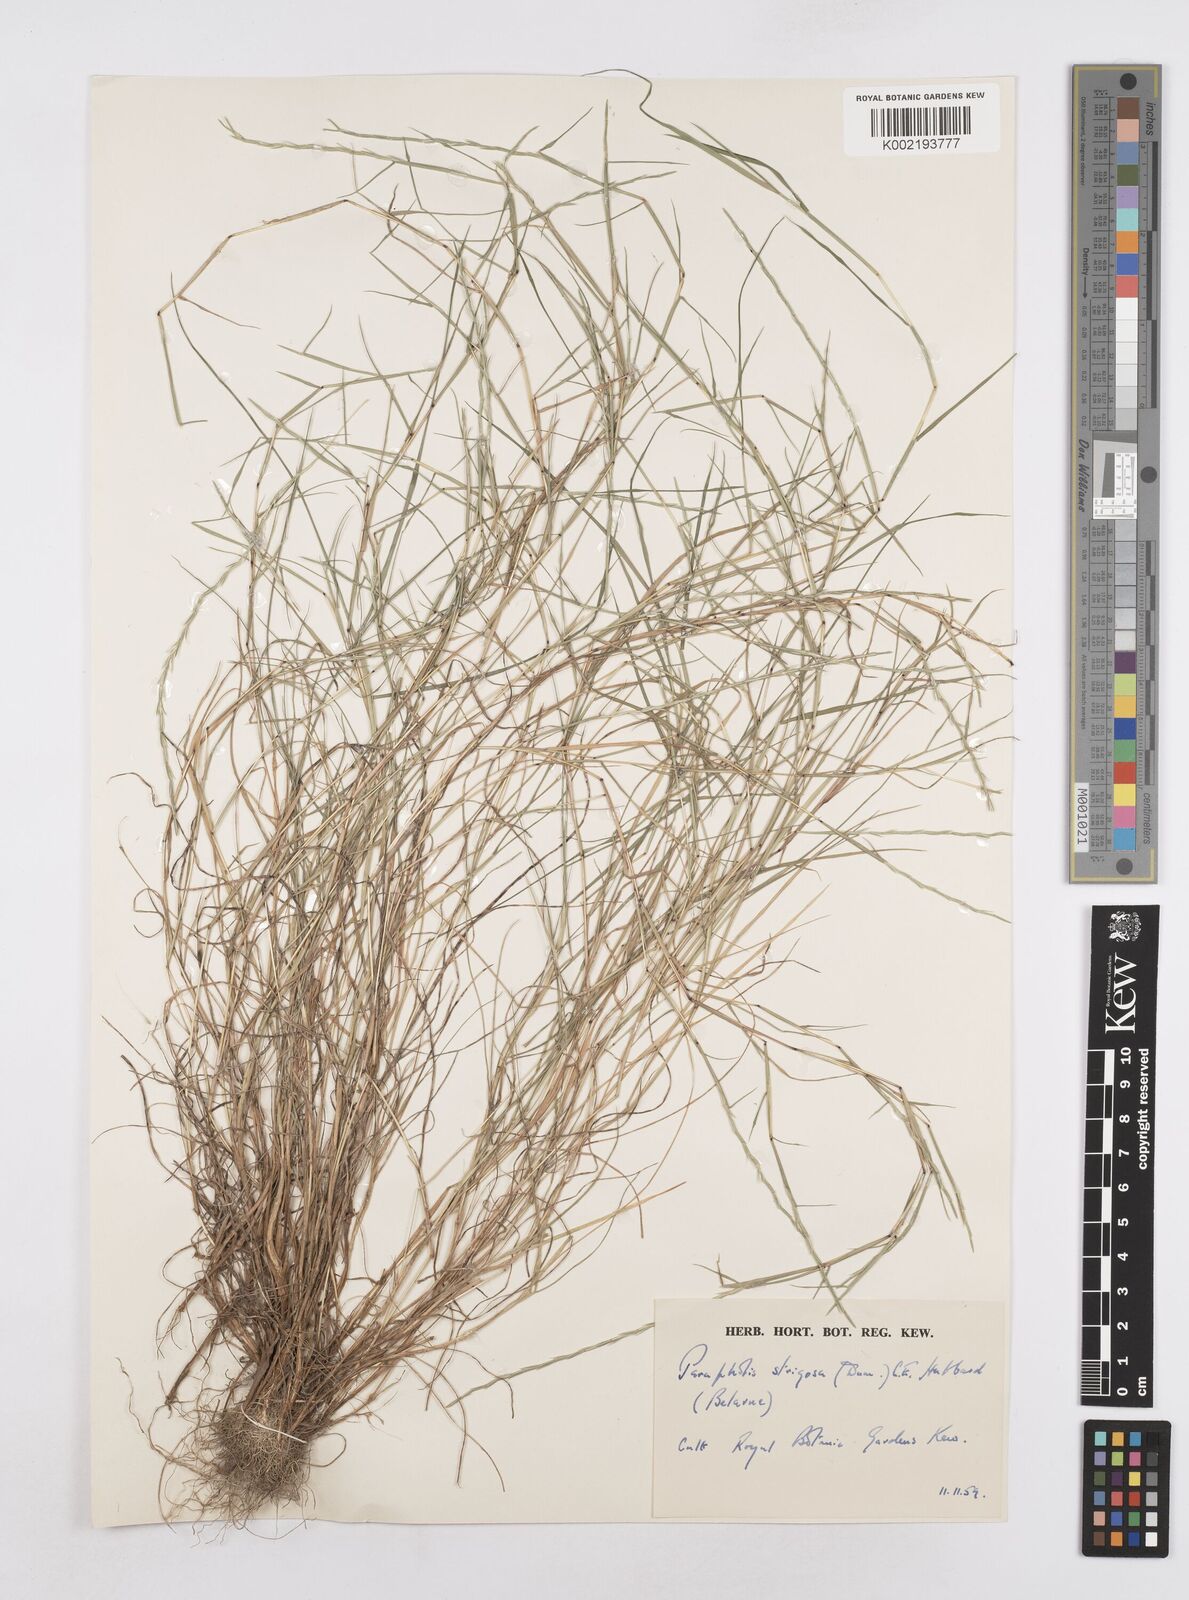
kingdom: Plantae
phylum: Tracheophyta
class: Liliopsida
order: Poales
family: Poaceae
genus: Parapholis
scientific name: Parapholis strigosa
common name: Hard-grass
